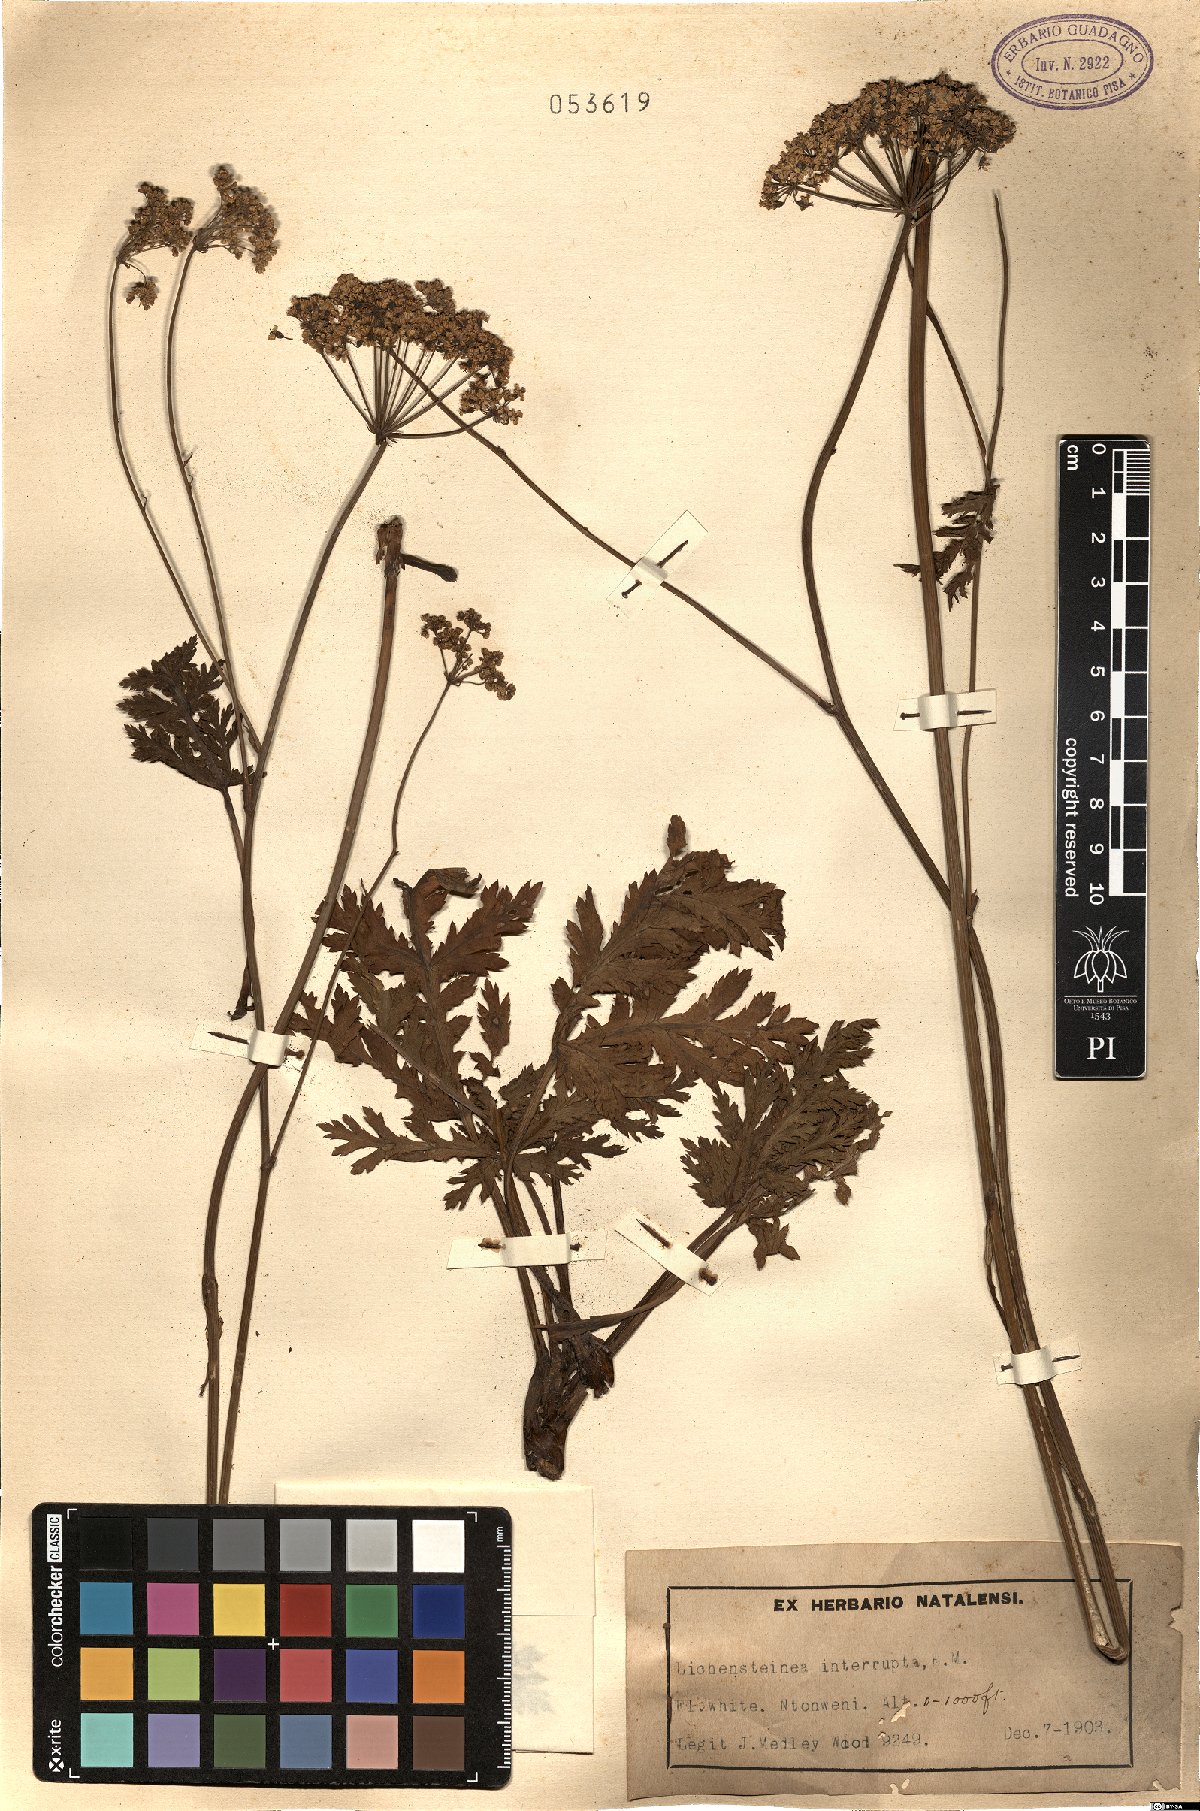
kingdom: Plantae
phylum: Tracheophyta
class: Magnoliopsida
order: Apiales
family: Apiaceae
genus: Lichtensteinia
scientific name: Lichtensteinia interrupta
